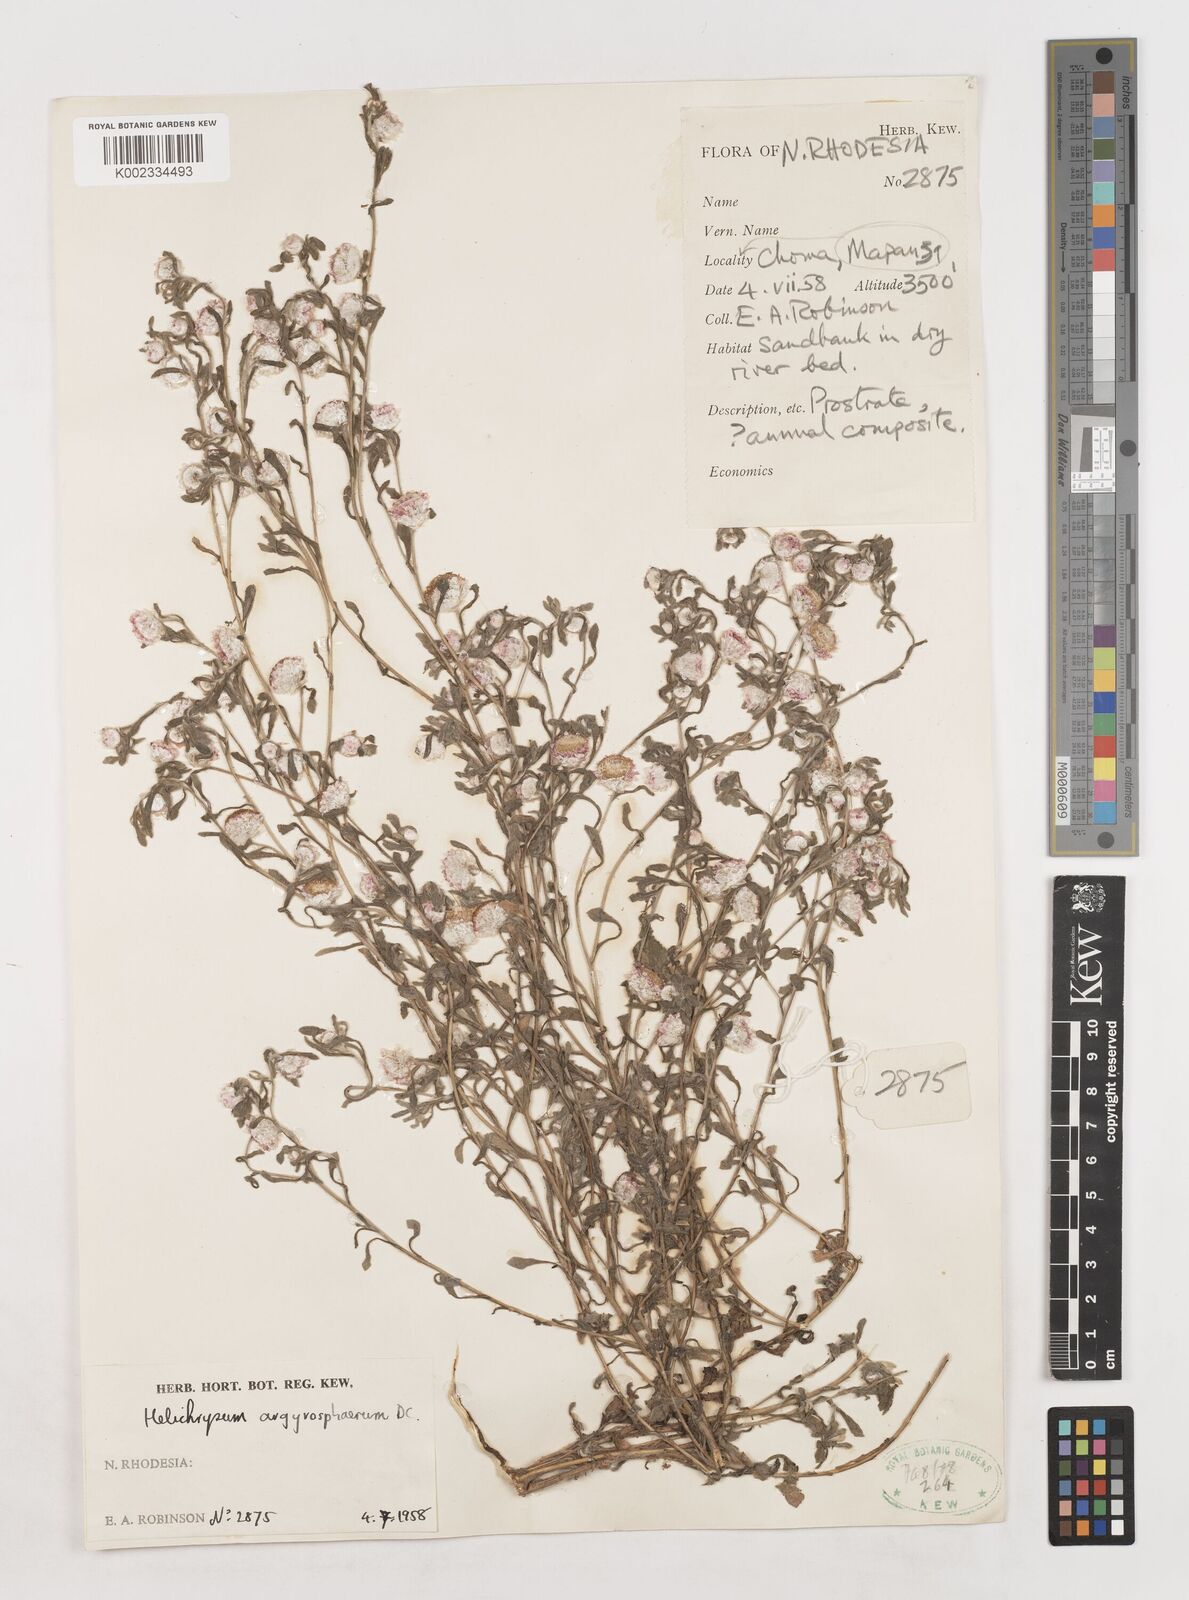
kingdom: Plantae
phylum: Tracheophyta
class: Magnoliopsida
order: Asterales
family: Asteraceae
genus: Helichrysum
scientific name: Helichrysum argyrosphaerum
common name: Wild everlasting
